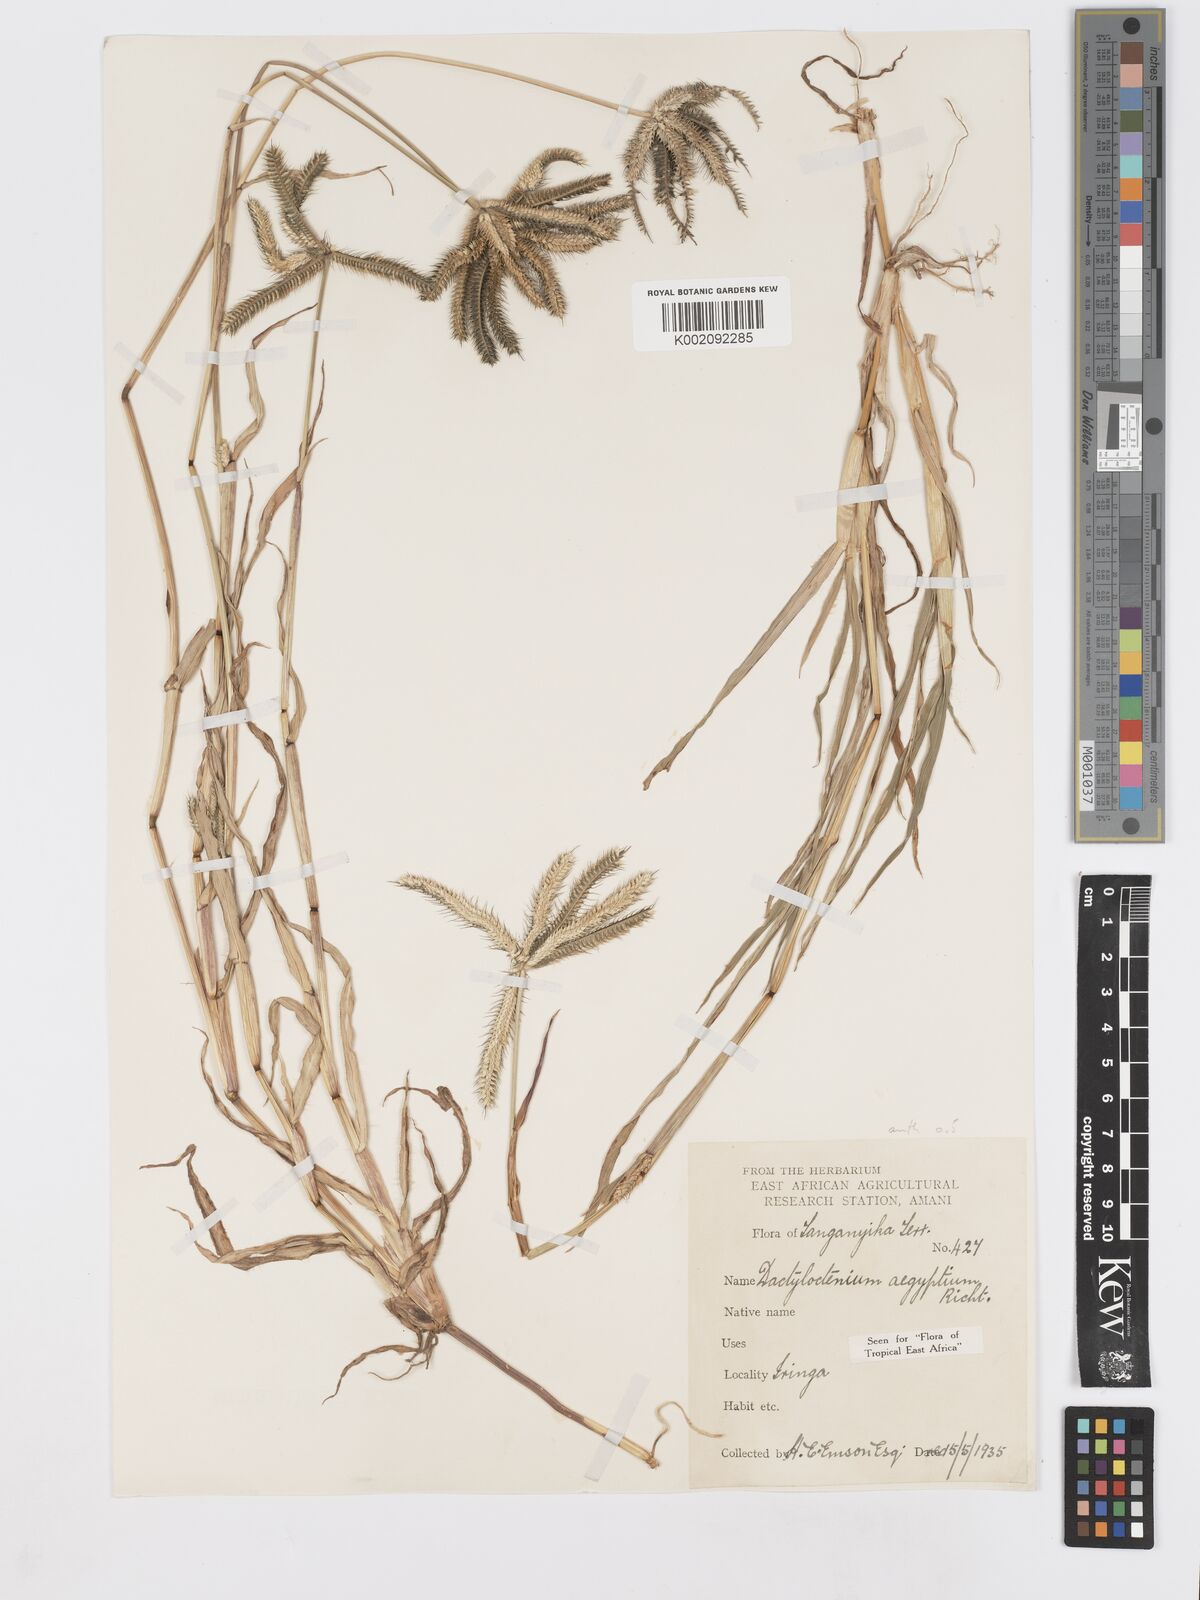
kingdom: Plantae
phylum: Tracheophyta
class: Liliopsida
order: Poales
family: Poaceae
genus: Dactyloctenium
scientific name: Dactyloctenium aegyptium
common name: Egyptian grass
